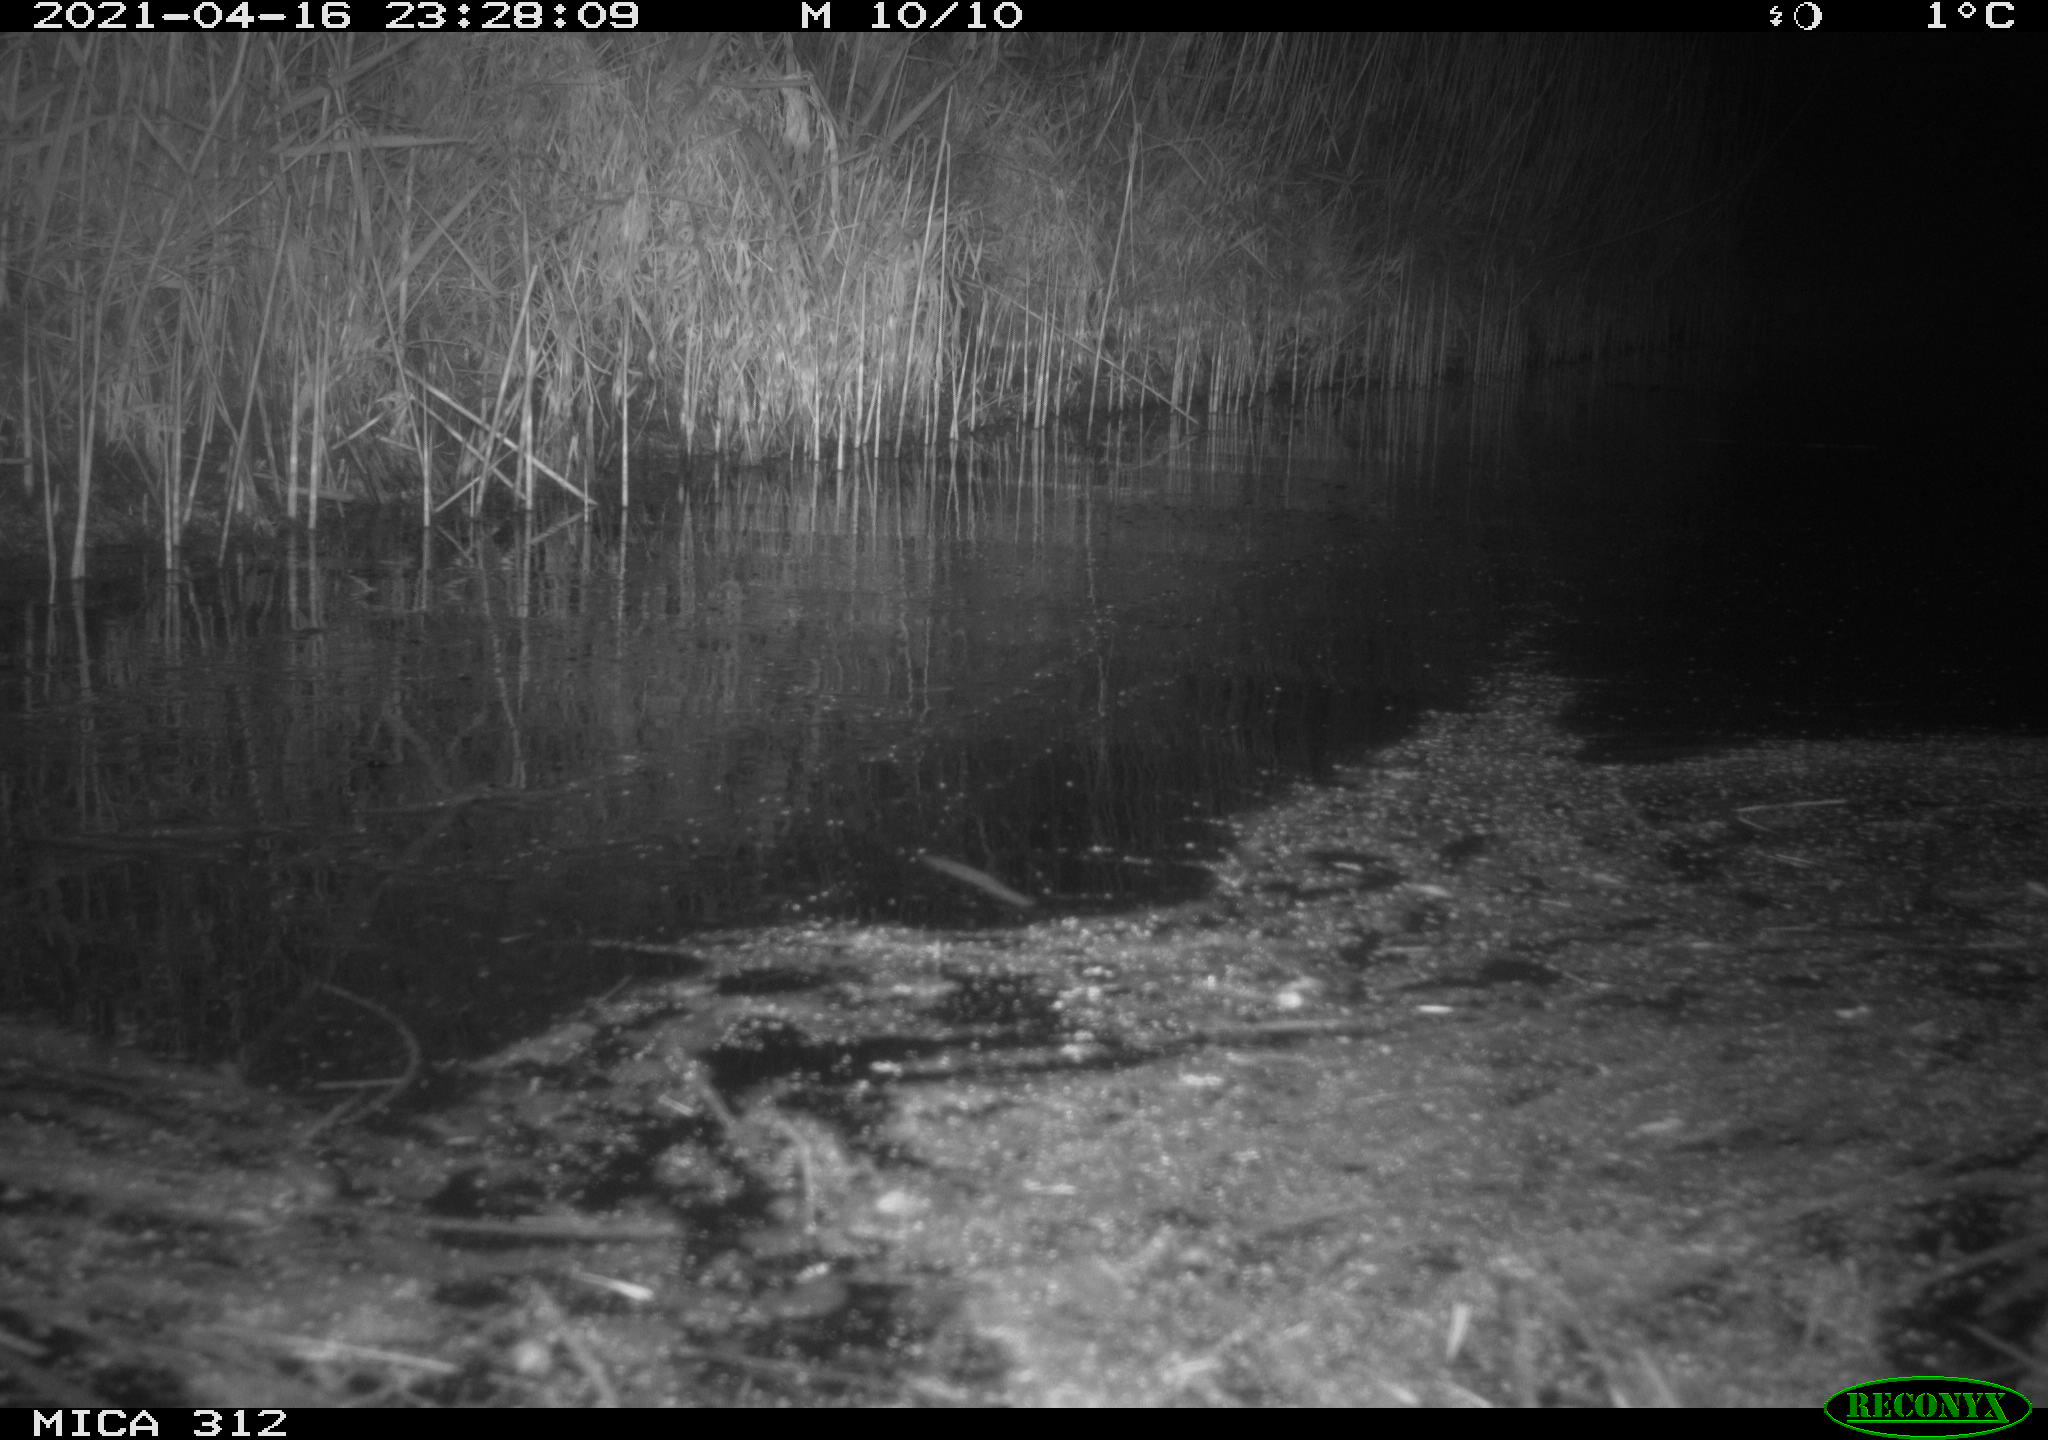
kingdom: Animalia
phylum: Chordata
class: Aves
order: Anseriformes
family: Anatidae
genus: Anas
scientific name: Anas platyrhynchos
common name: Mallard
